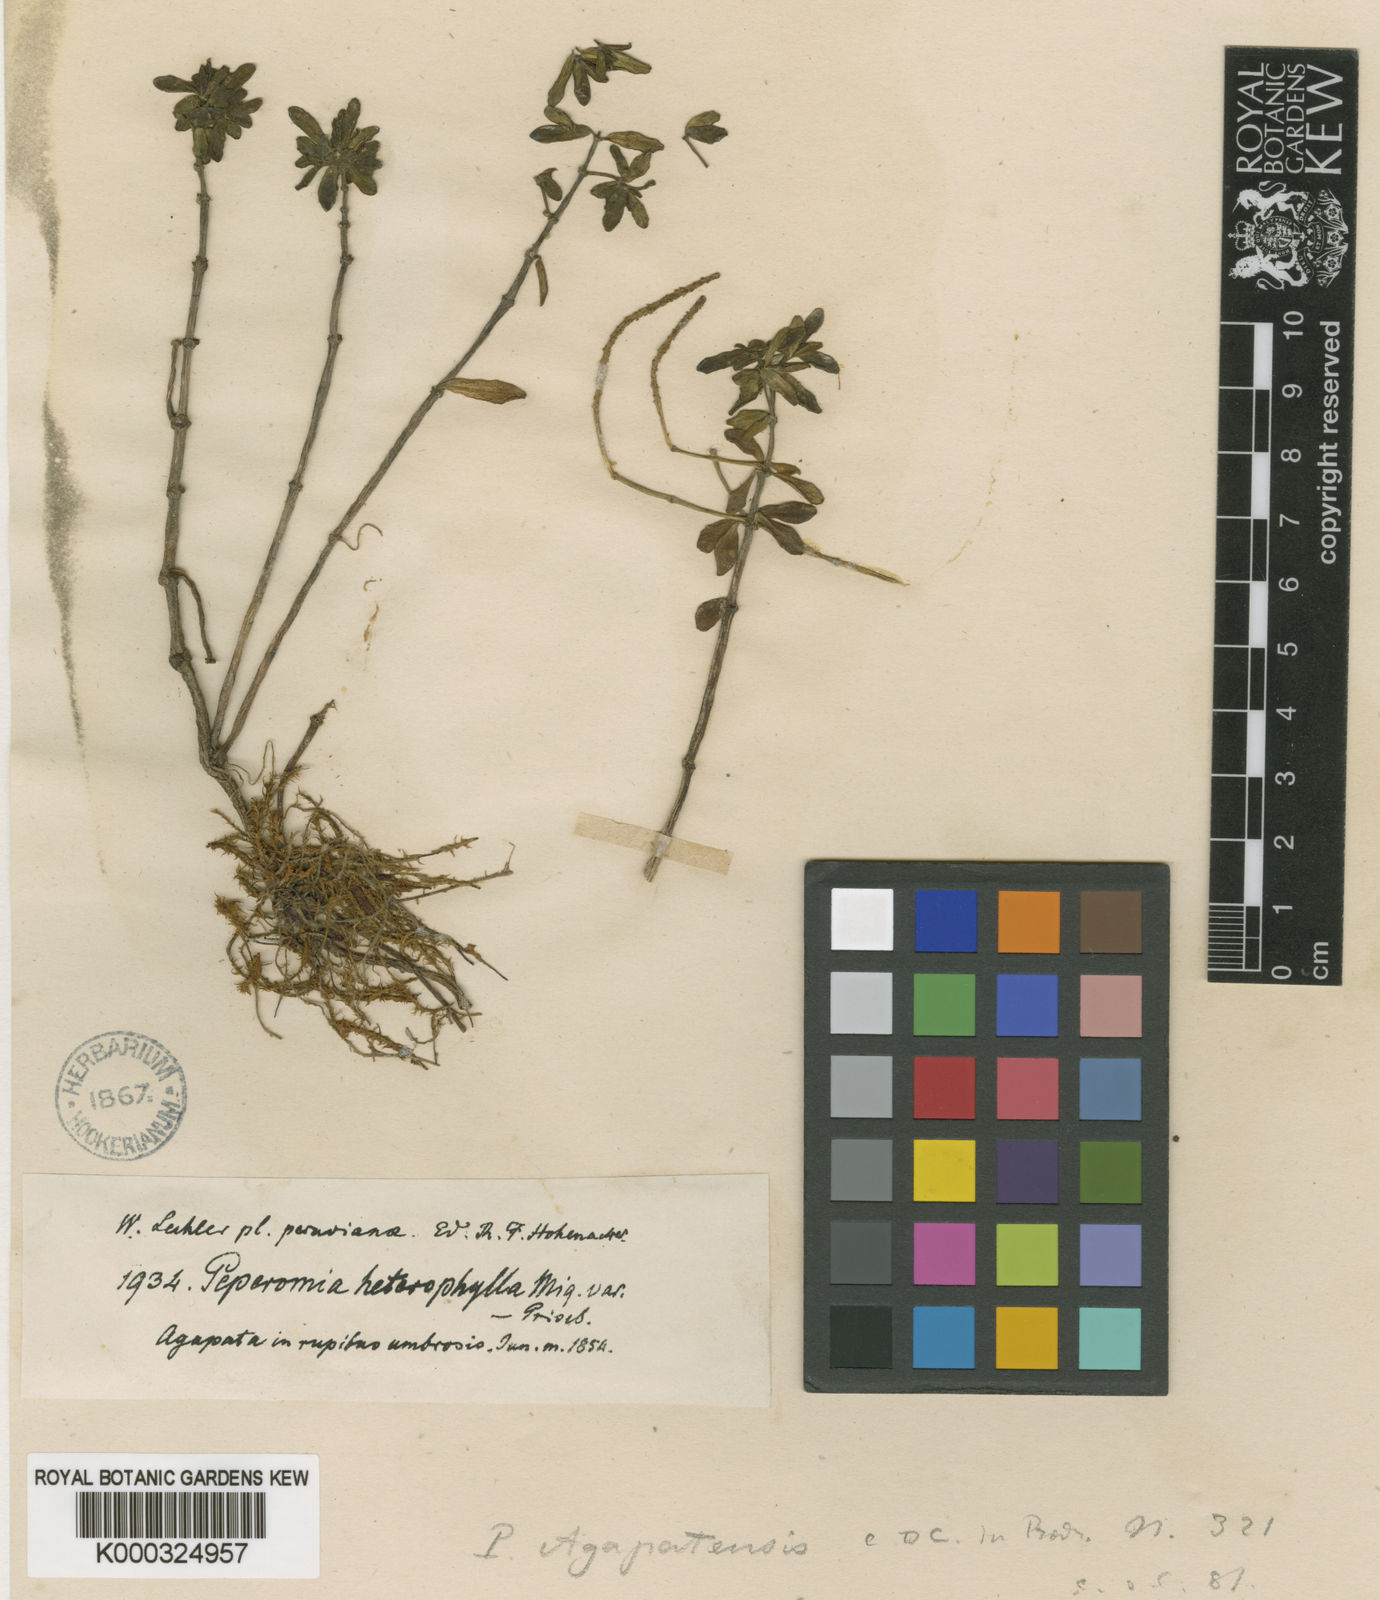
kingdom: Plantae
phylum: Tracheophyta
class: Magnoliopsida
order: Piperales
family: Piperaceae
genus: Peperomia
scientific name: Peperomia galioides
